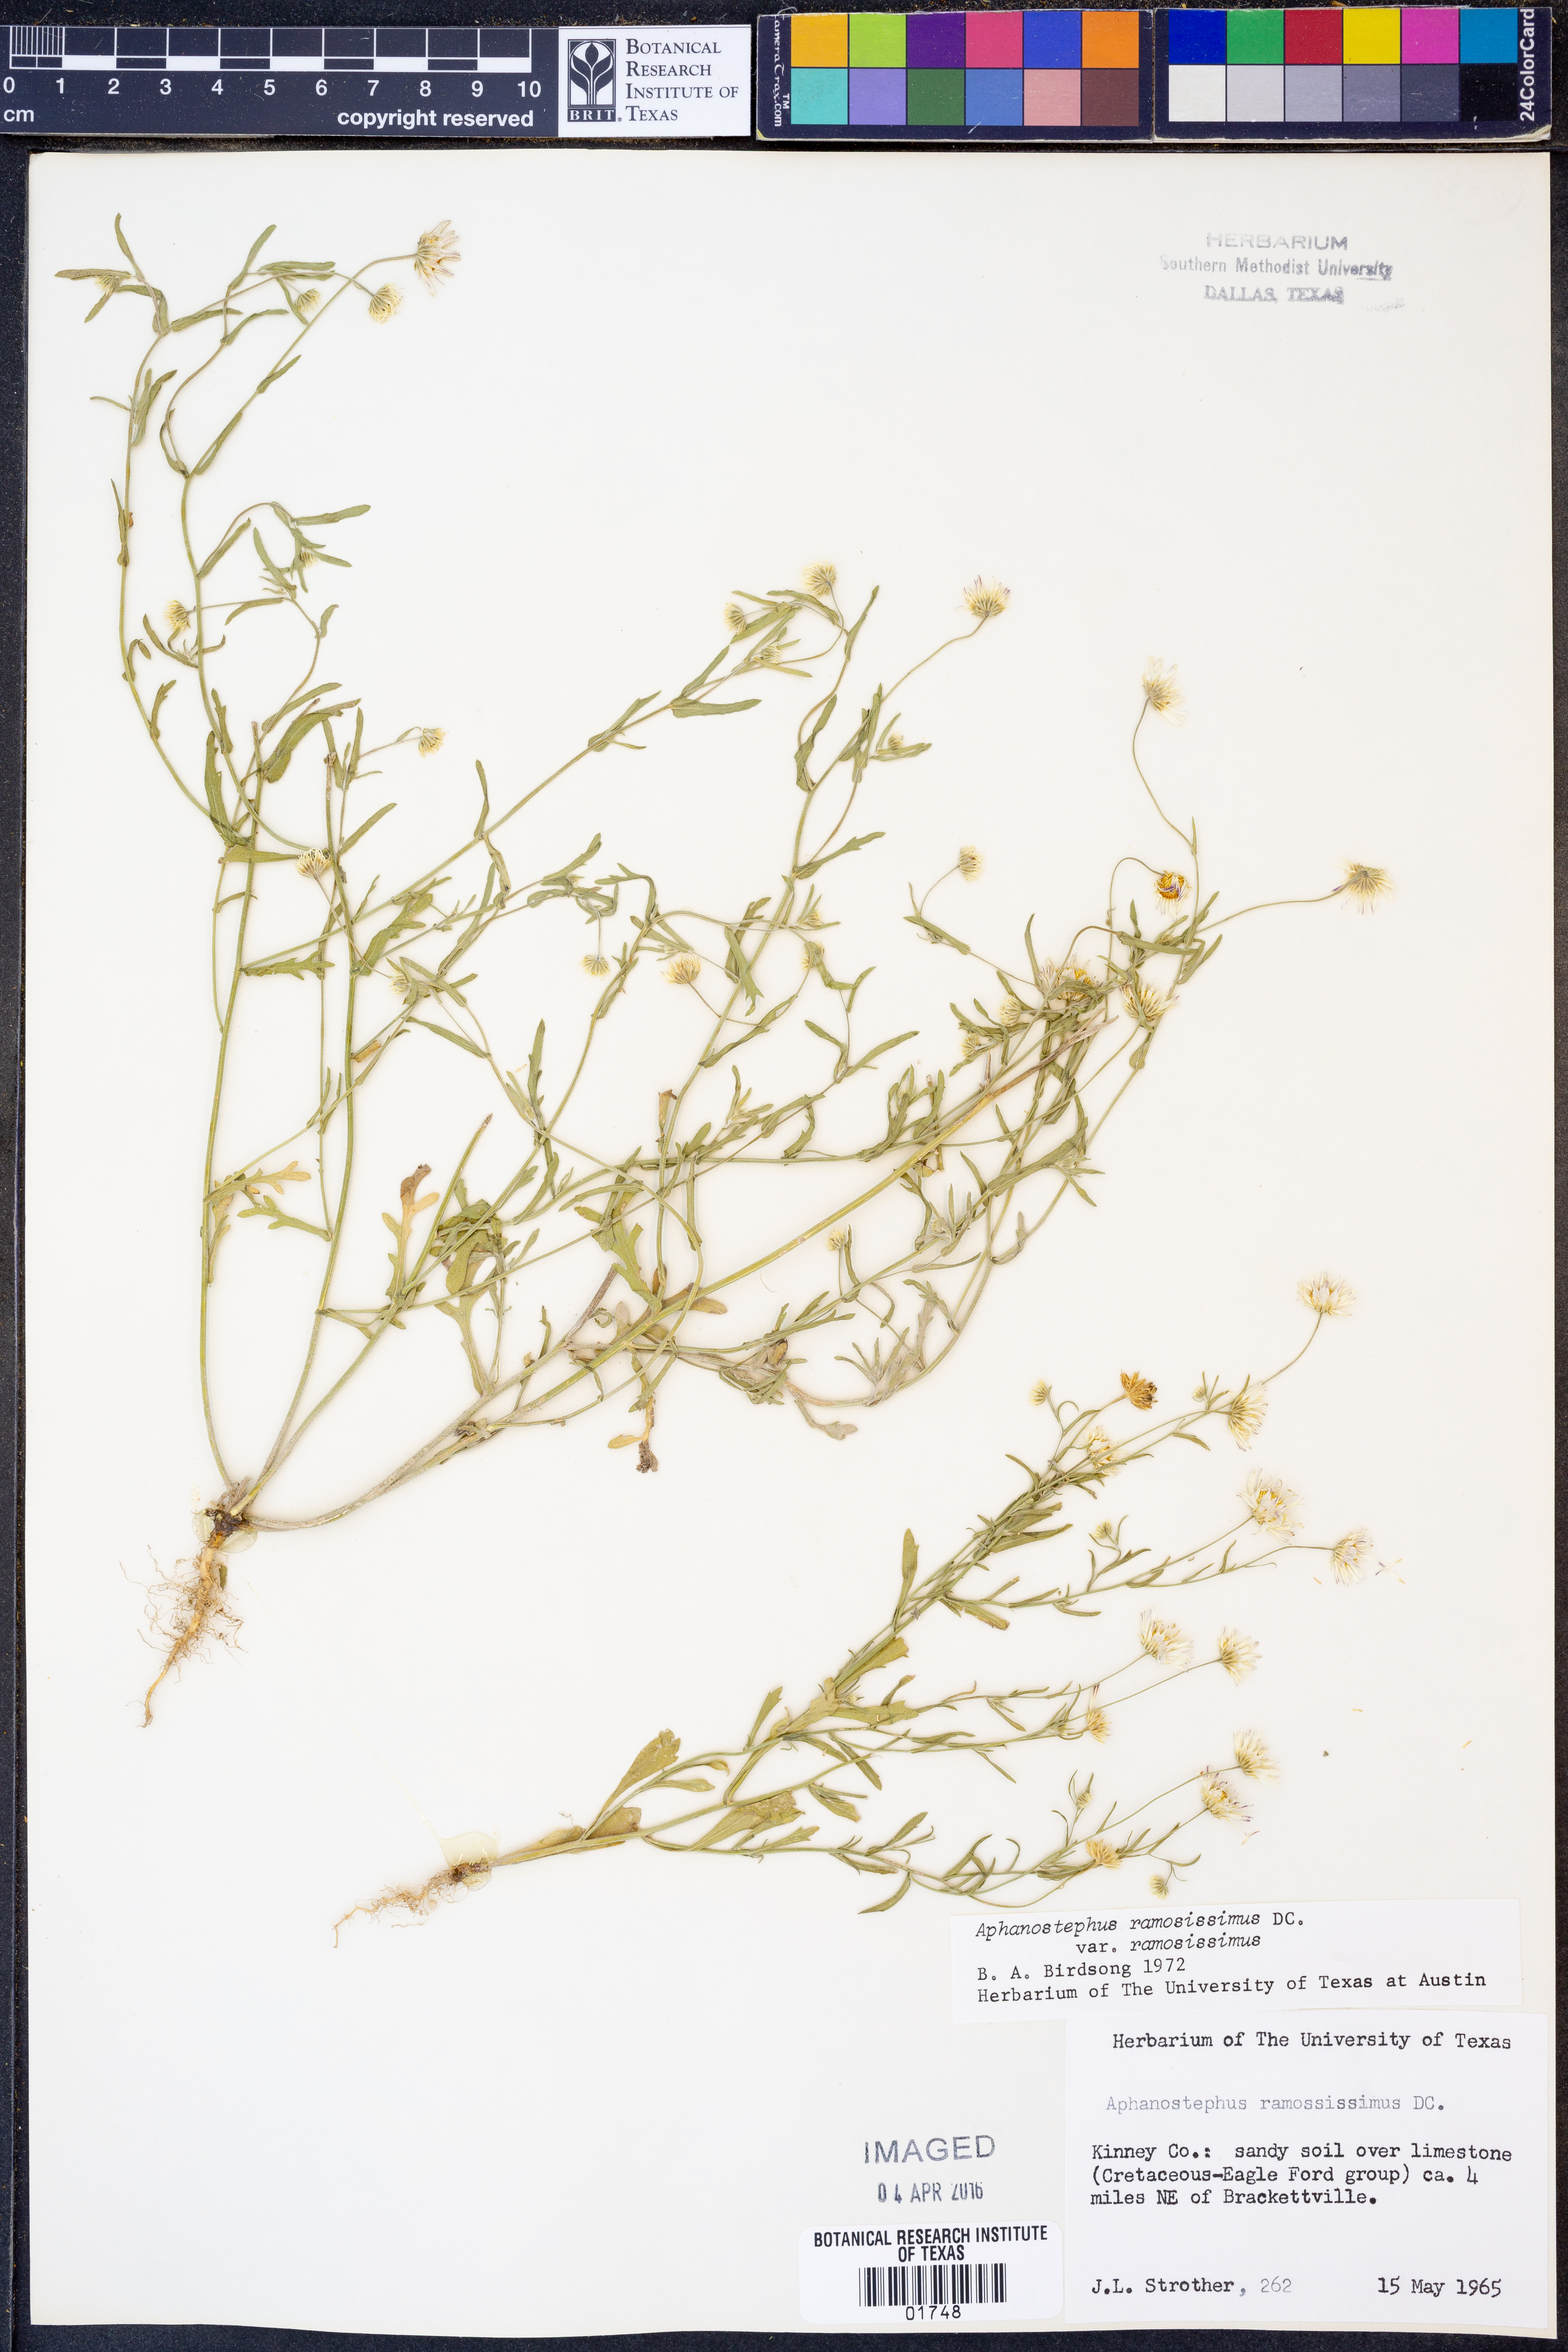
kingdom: Plantae
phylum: Tracheophyta
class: Magnoliopsida
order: Asterales
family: Asteraceae
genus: Aphanostephus
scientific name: Aphanostephus ramosissimus
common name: Plains lazy daisy
